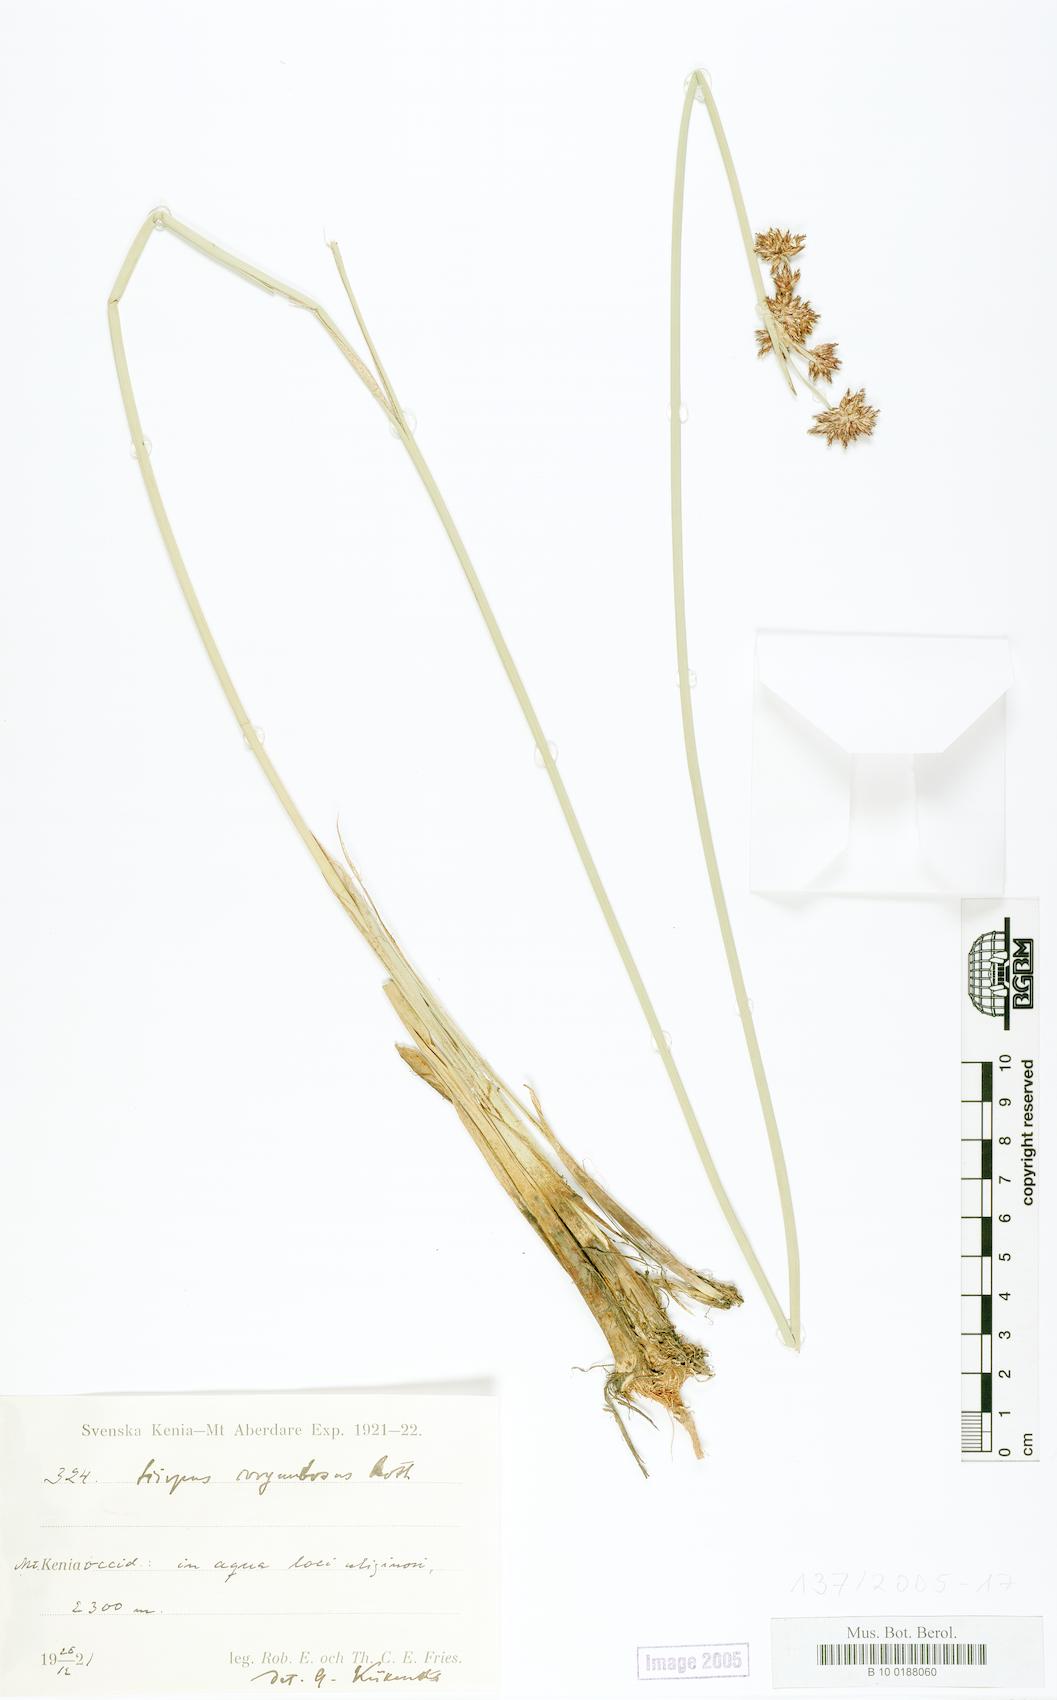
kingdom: Plantae
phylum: Tracheophyta
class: Liliopsida
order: Poales
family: Cyperaceae
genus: Scirpus
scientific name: Scirpus corymbosus
